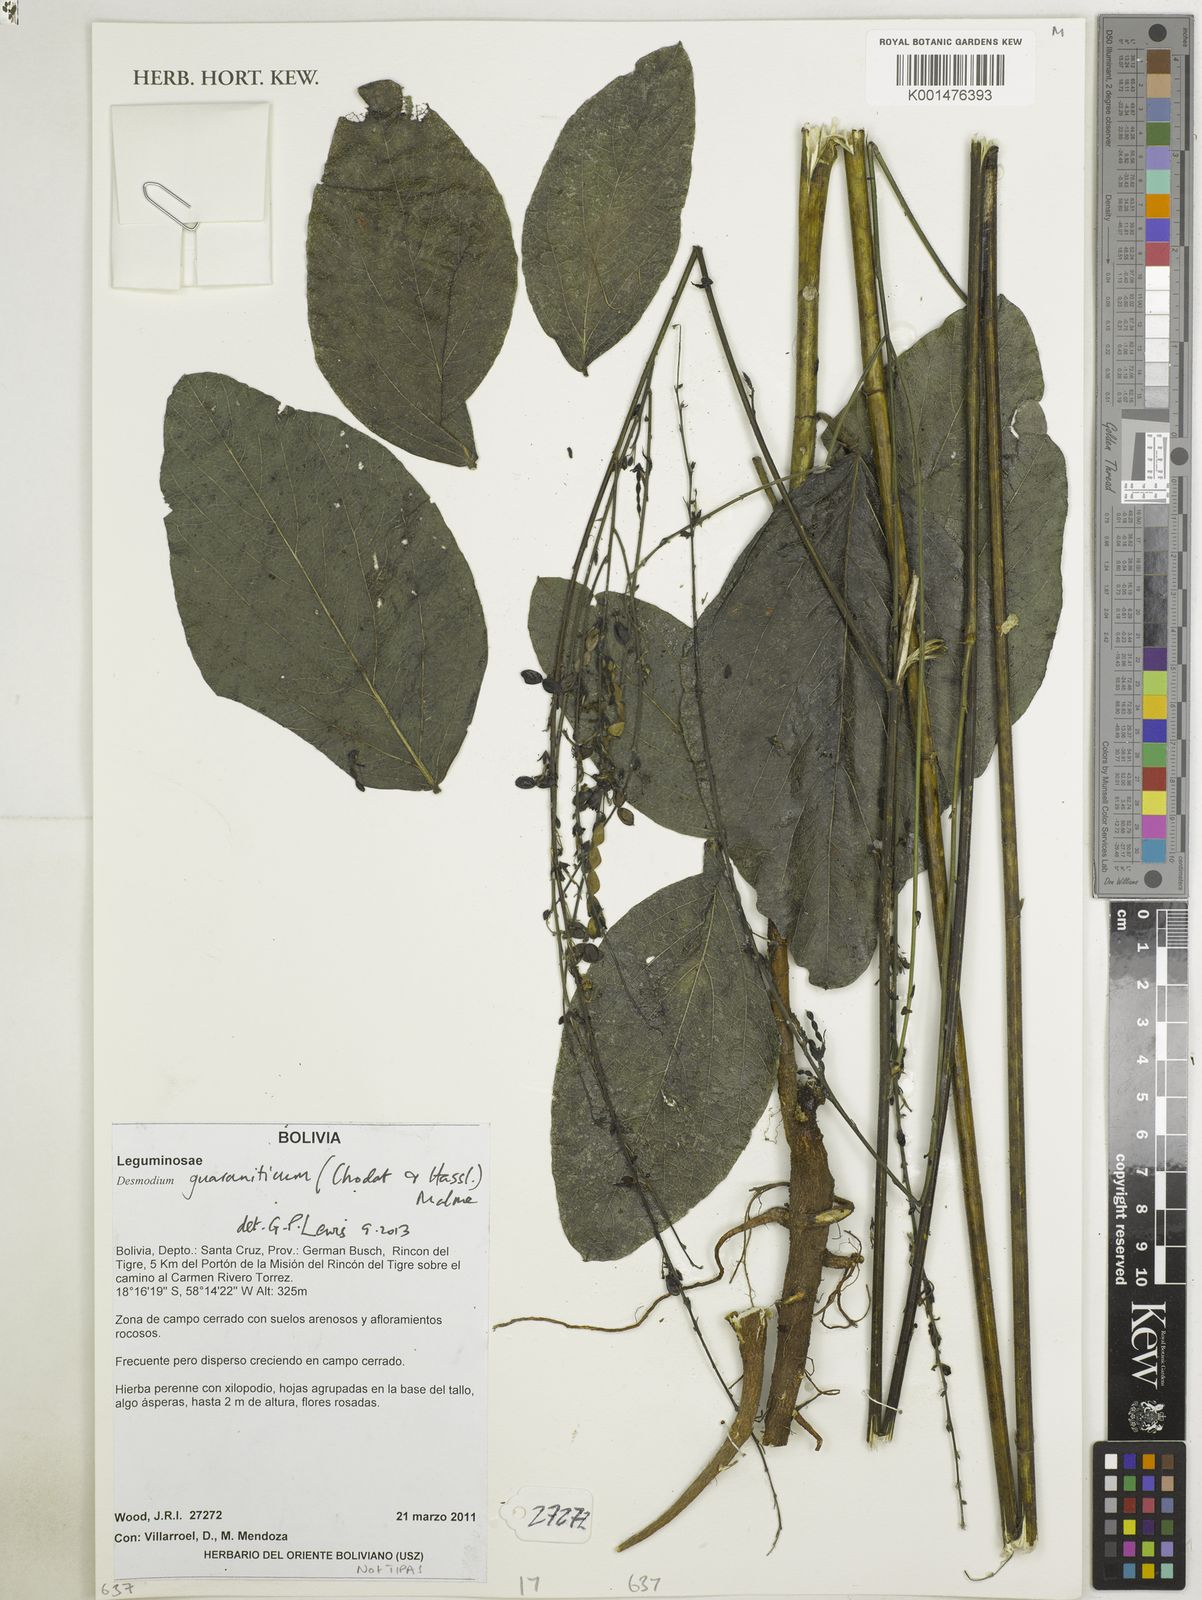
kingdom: Plantae
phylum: Tracheophyta
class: Magnoliopsida
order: Fabales
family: Fabaceae
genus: Desmodium
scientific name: Desmodium guaraniticum
